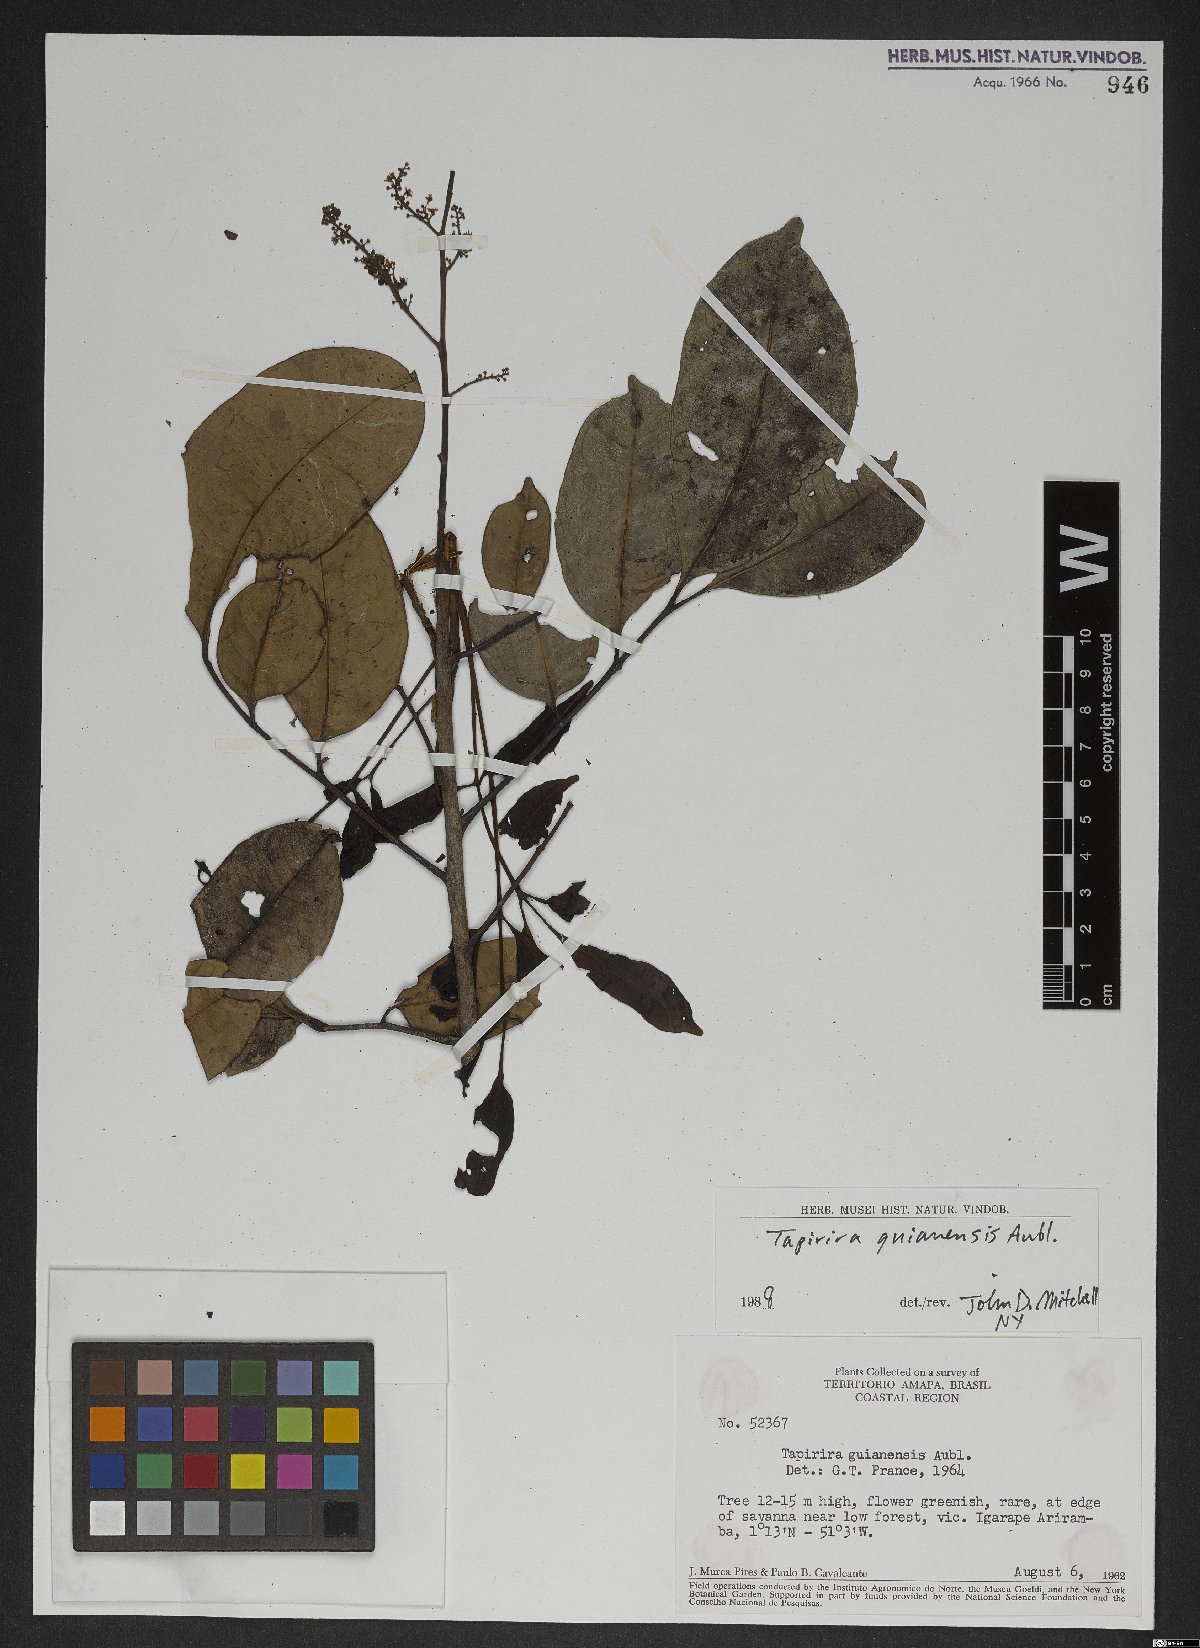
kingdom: Plantae
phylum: Tracheophyta
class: Magnoliopsida
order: Sapindales
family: Anacardiaceae
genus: Tapirira
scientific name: Tapirira guianensis
